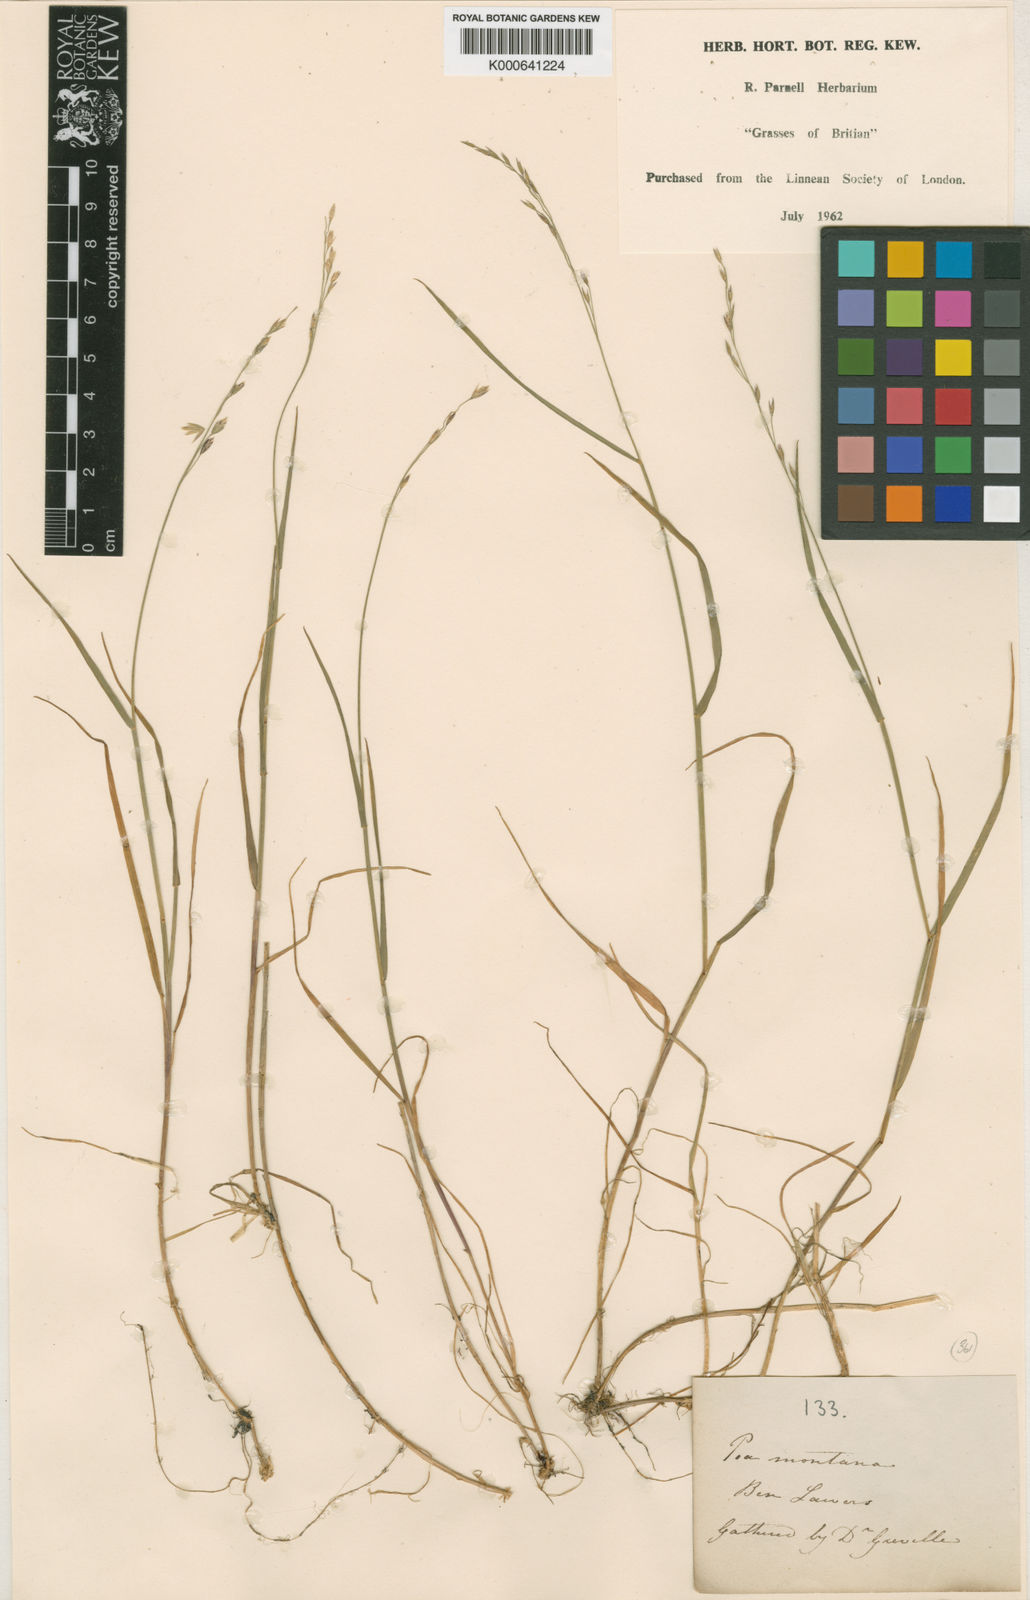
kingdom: Plantae
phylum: Tracheophyta
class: Liliopsida
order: Poales
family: Poaceae
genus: Poa
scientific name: Poa glauca
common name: Glaucous bluegrass
